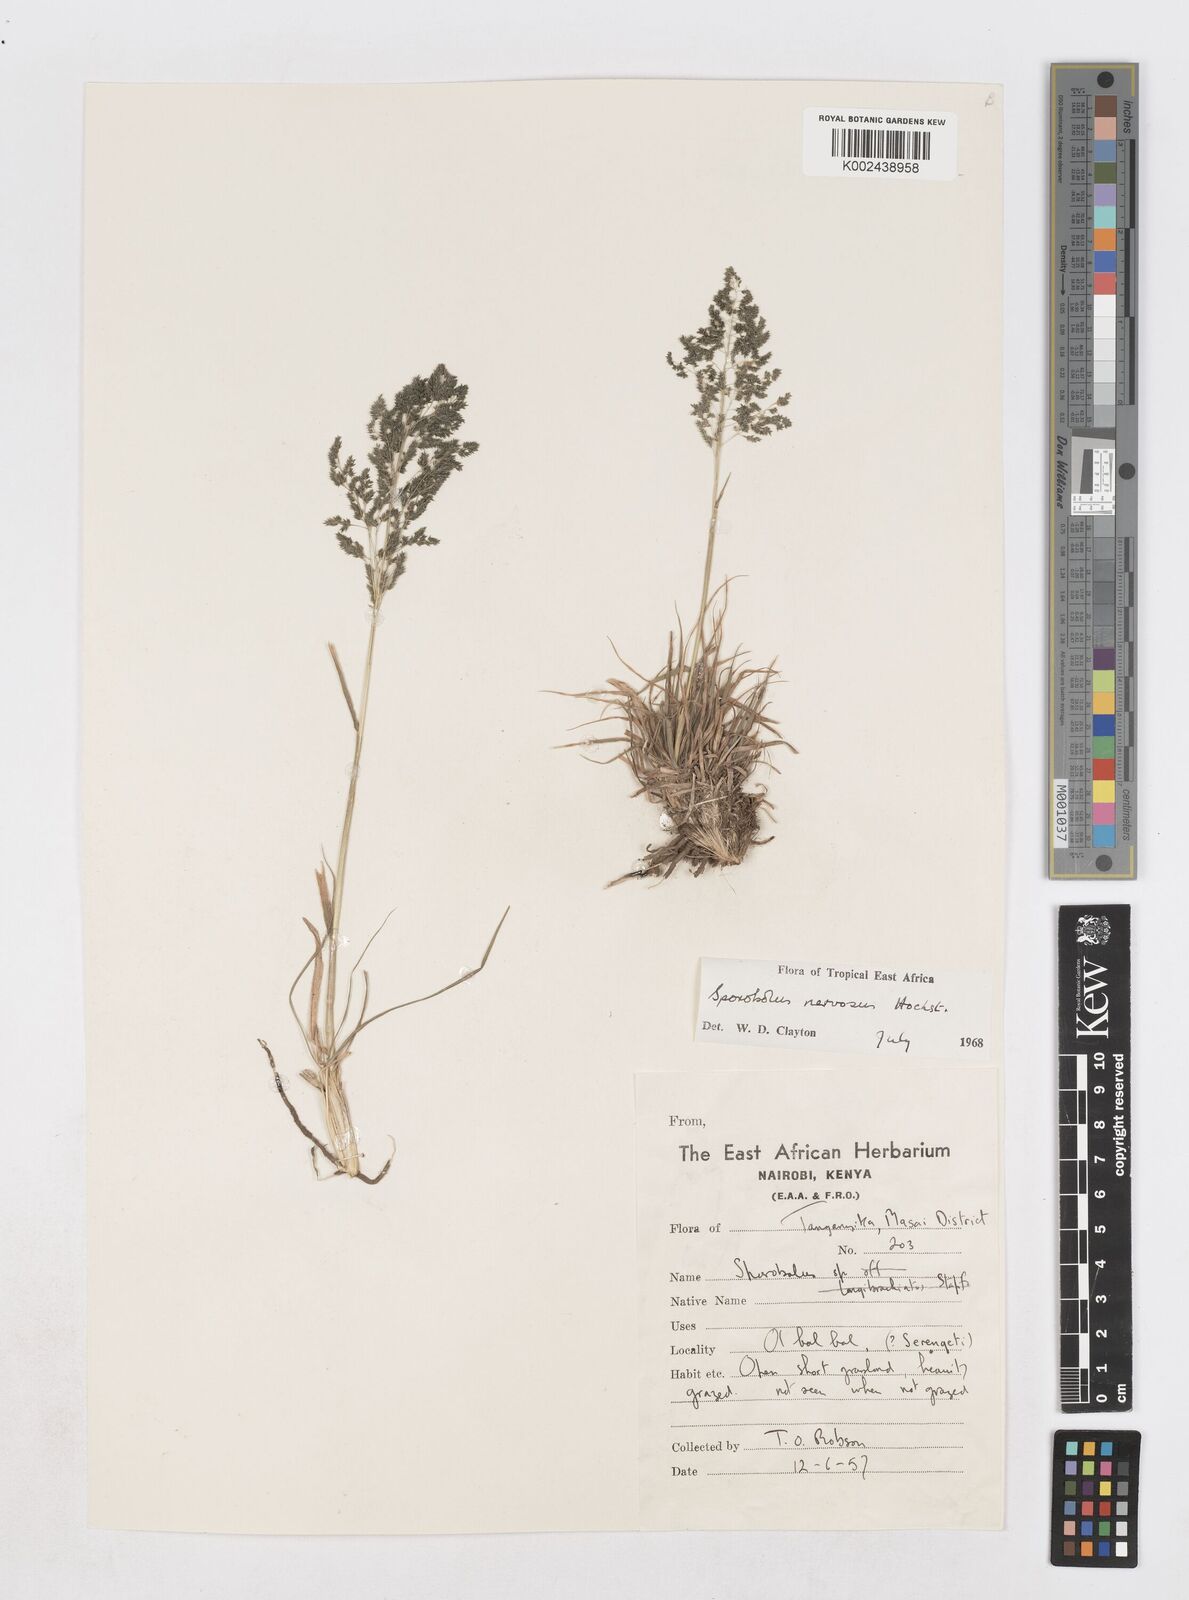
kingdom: Plantae
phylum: Tracheophyta
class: Liliopsida
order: Poales
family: Poaceae
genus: Sporobolus
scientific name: Sporobolus nervosus
